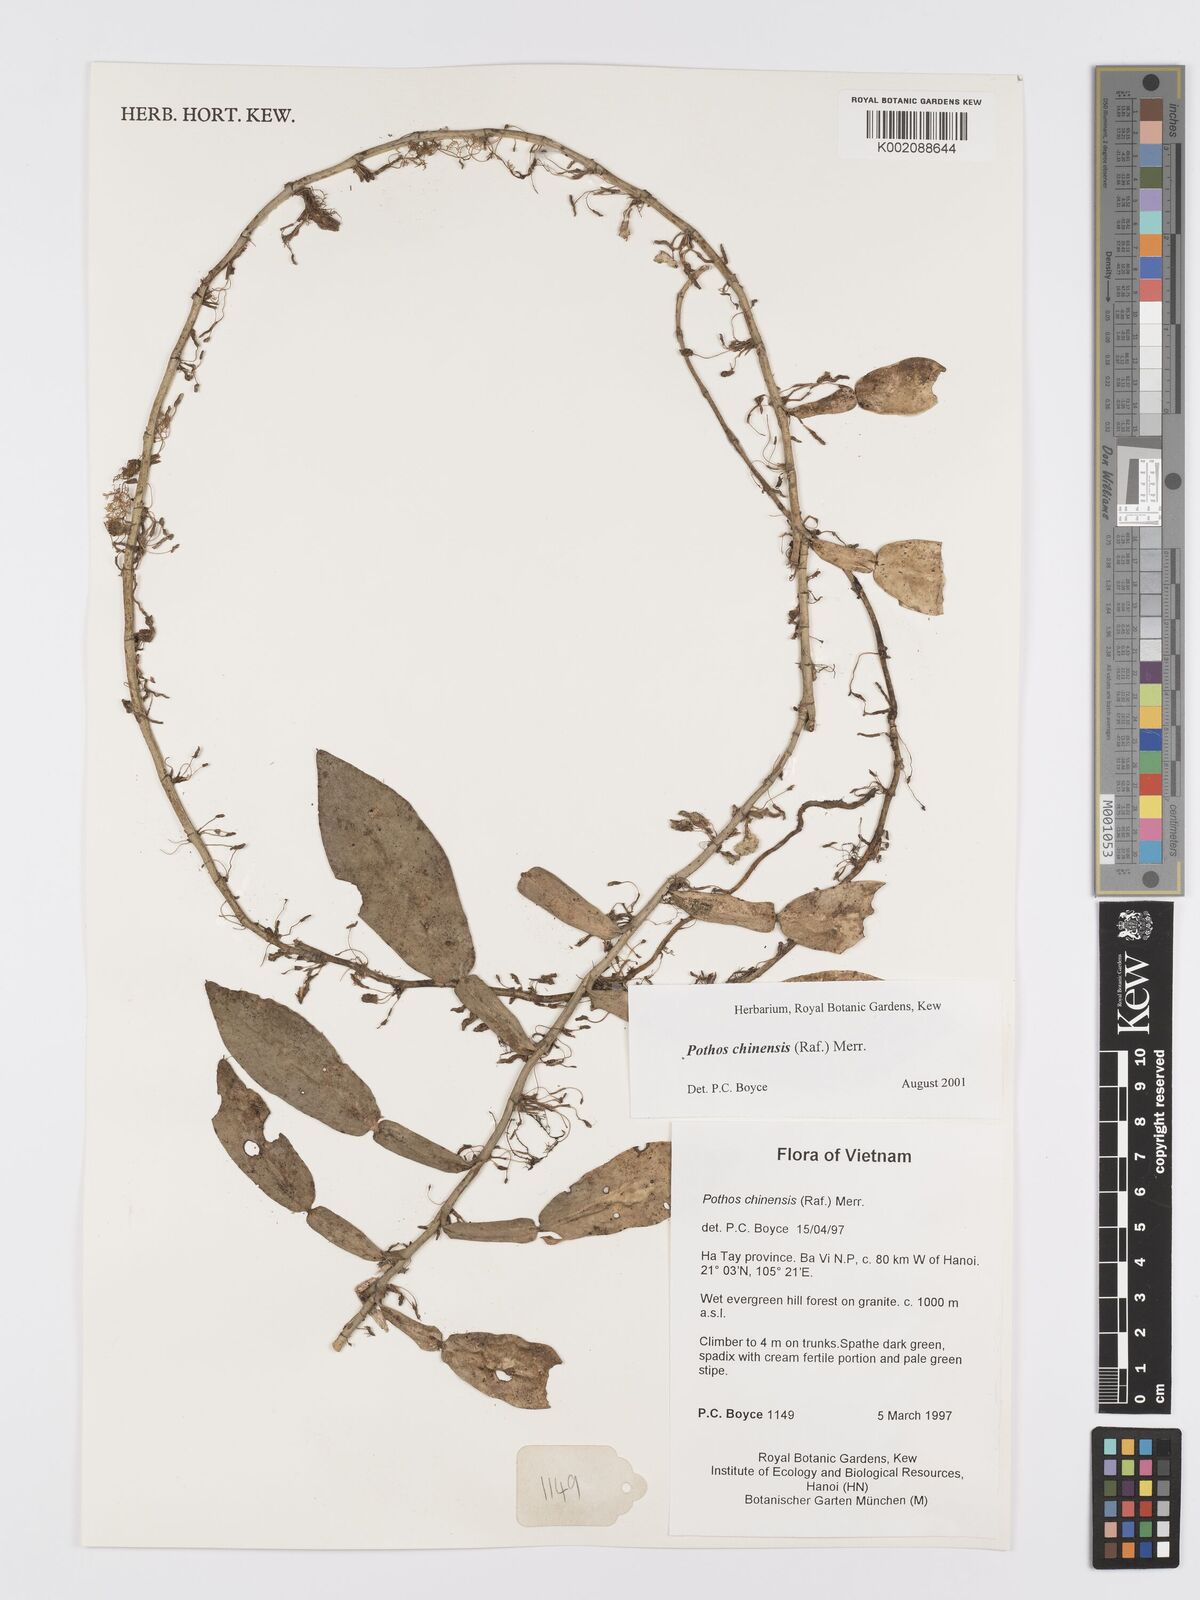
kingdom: Plantae
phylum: Tracheophyta
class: Liliopsida
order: Alismatales
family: Araceae
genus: Pothos
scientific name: Pothos chinensis
